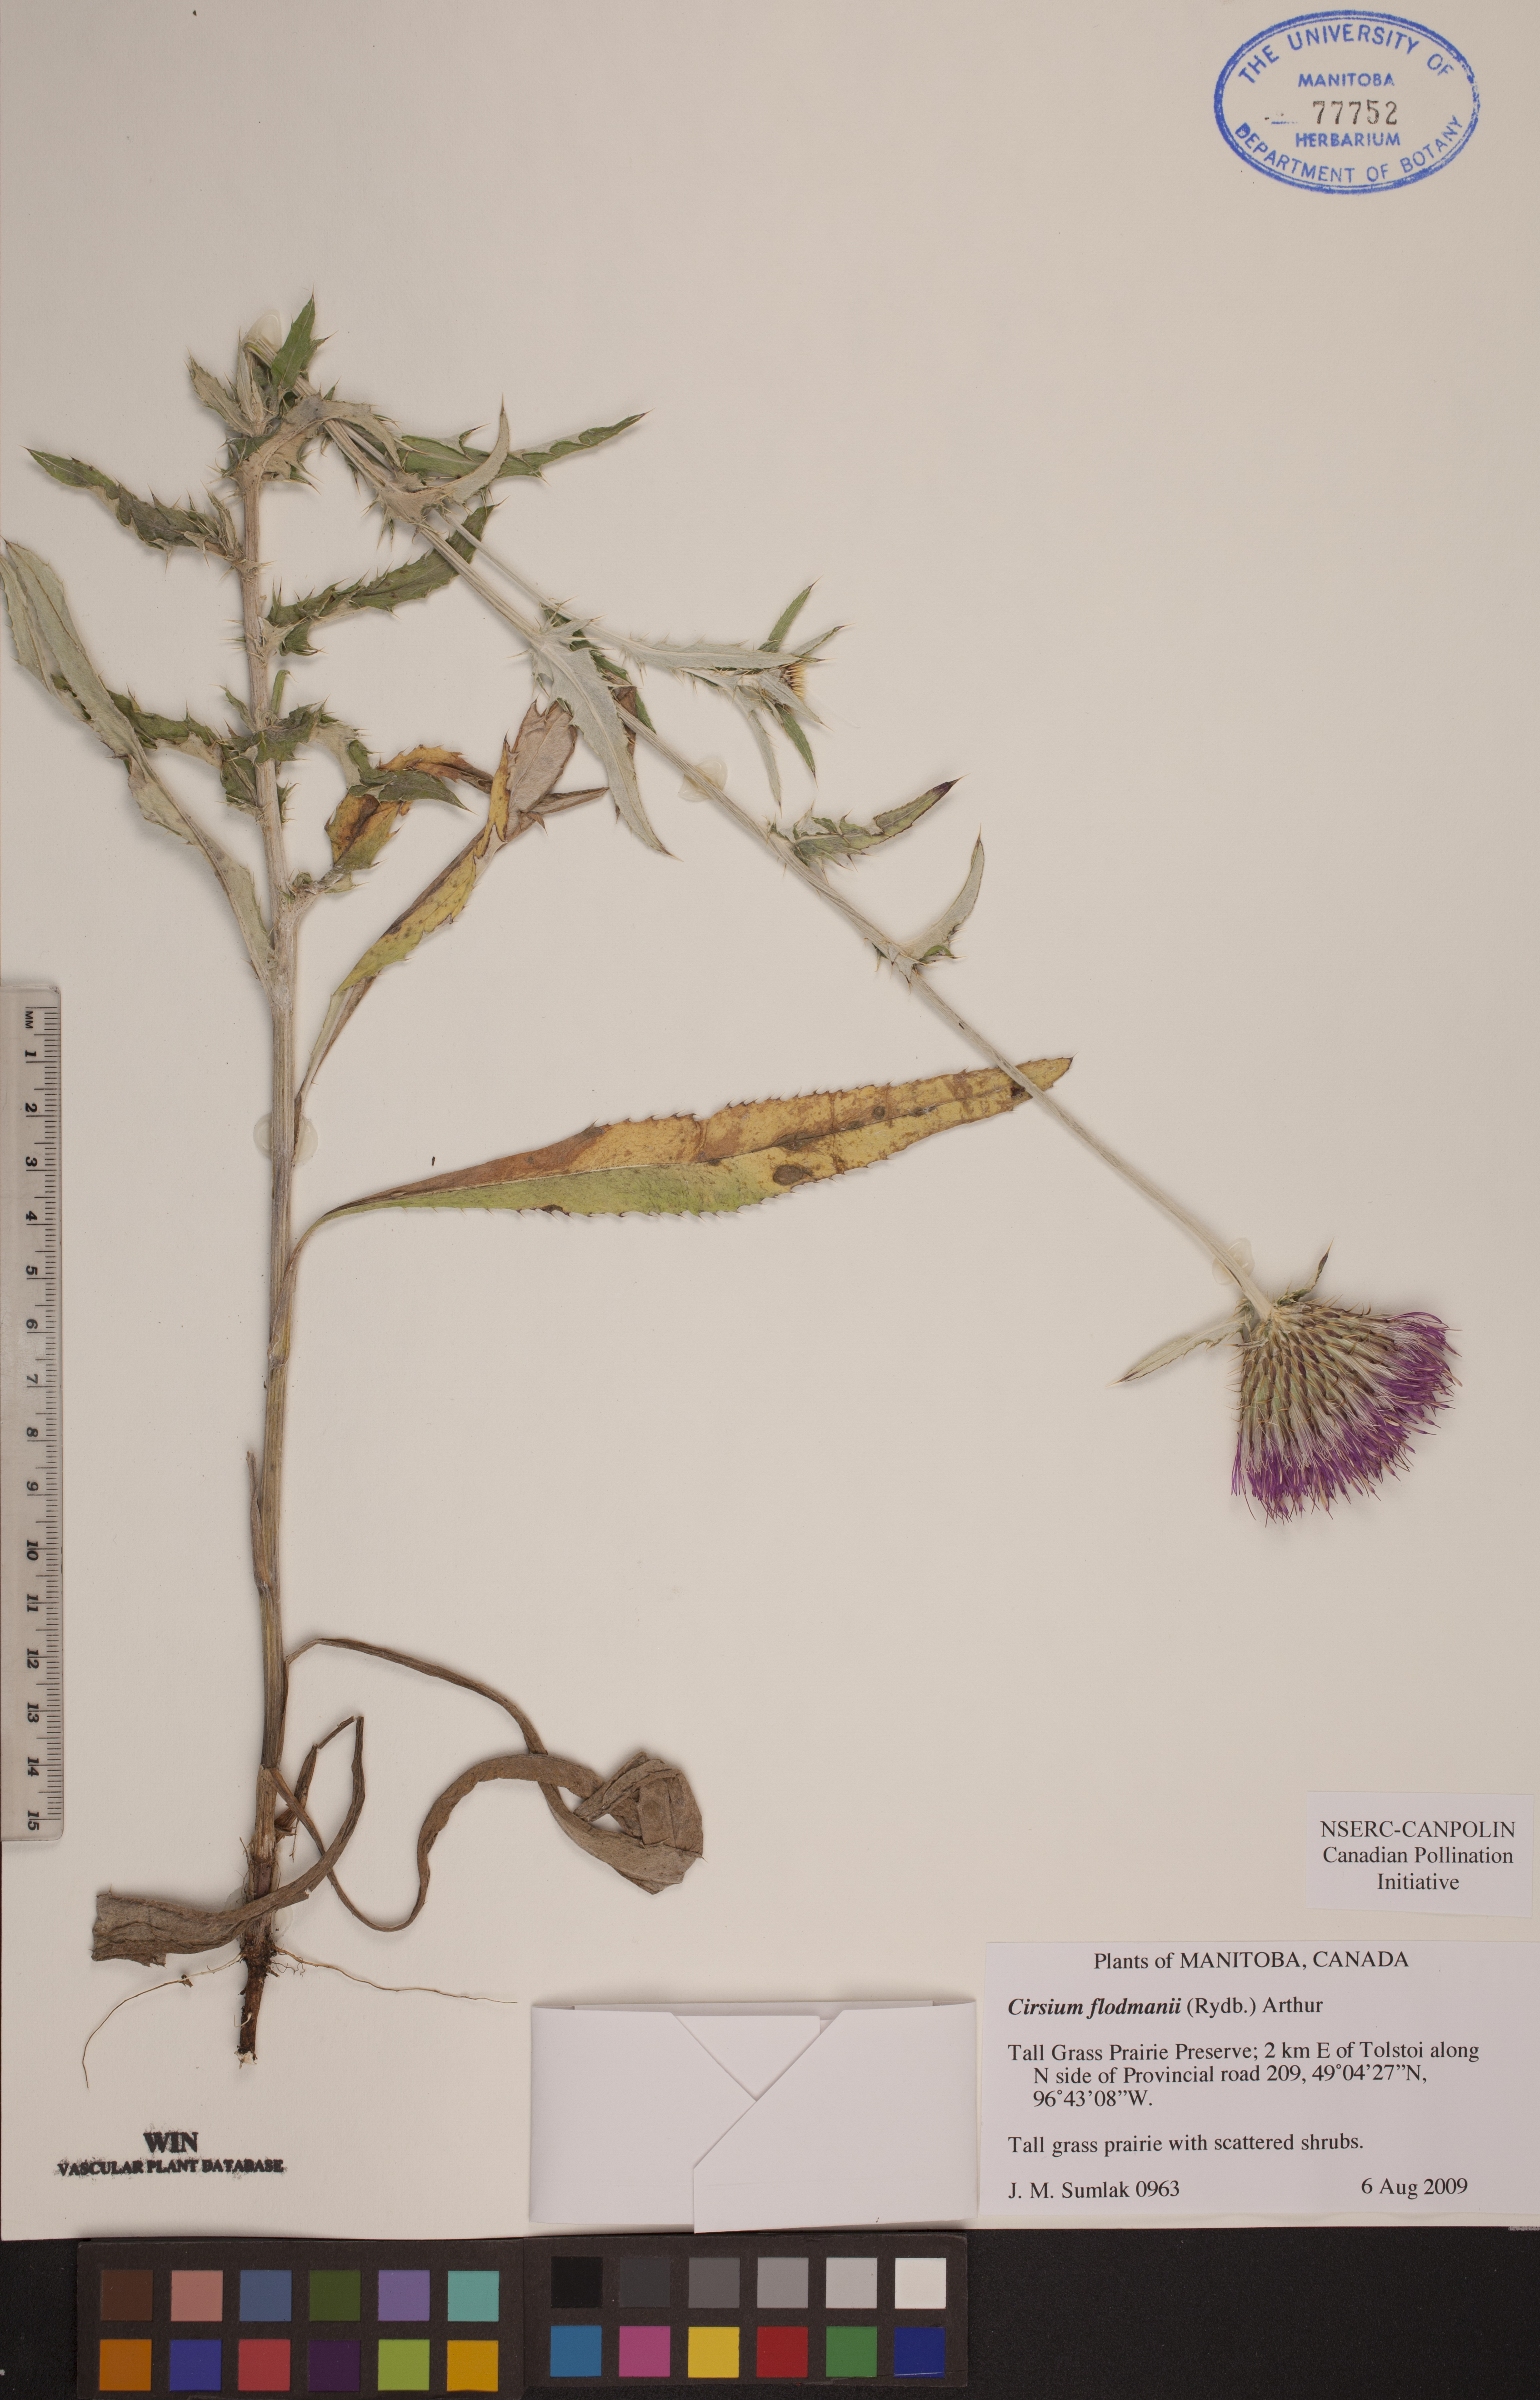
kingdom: Plantae
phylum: Tracheophyta
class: Magnoliopsida
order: Asterales
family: Asteraceae
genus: Cirsium
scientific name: Cirsium flodmanii
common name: Flodman's thistle
